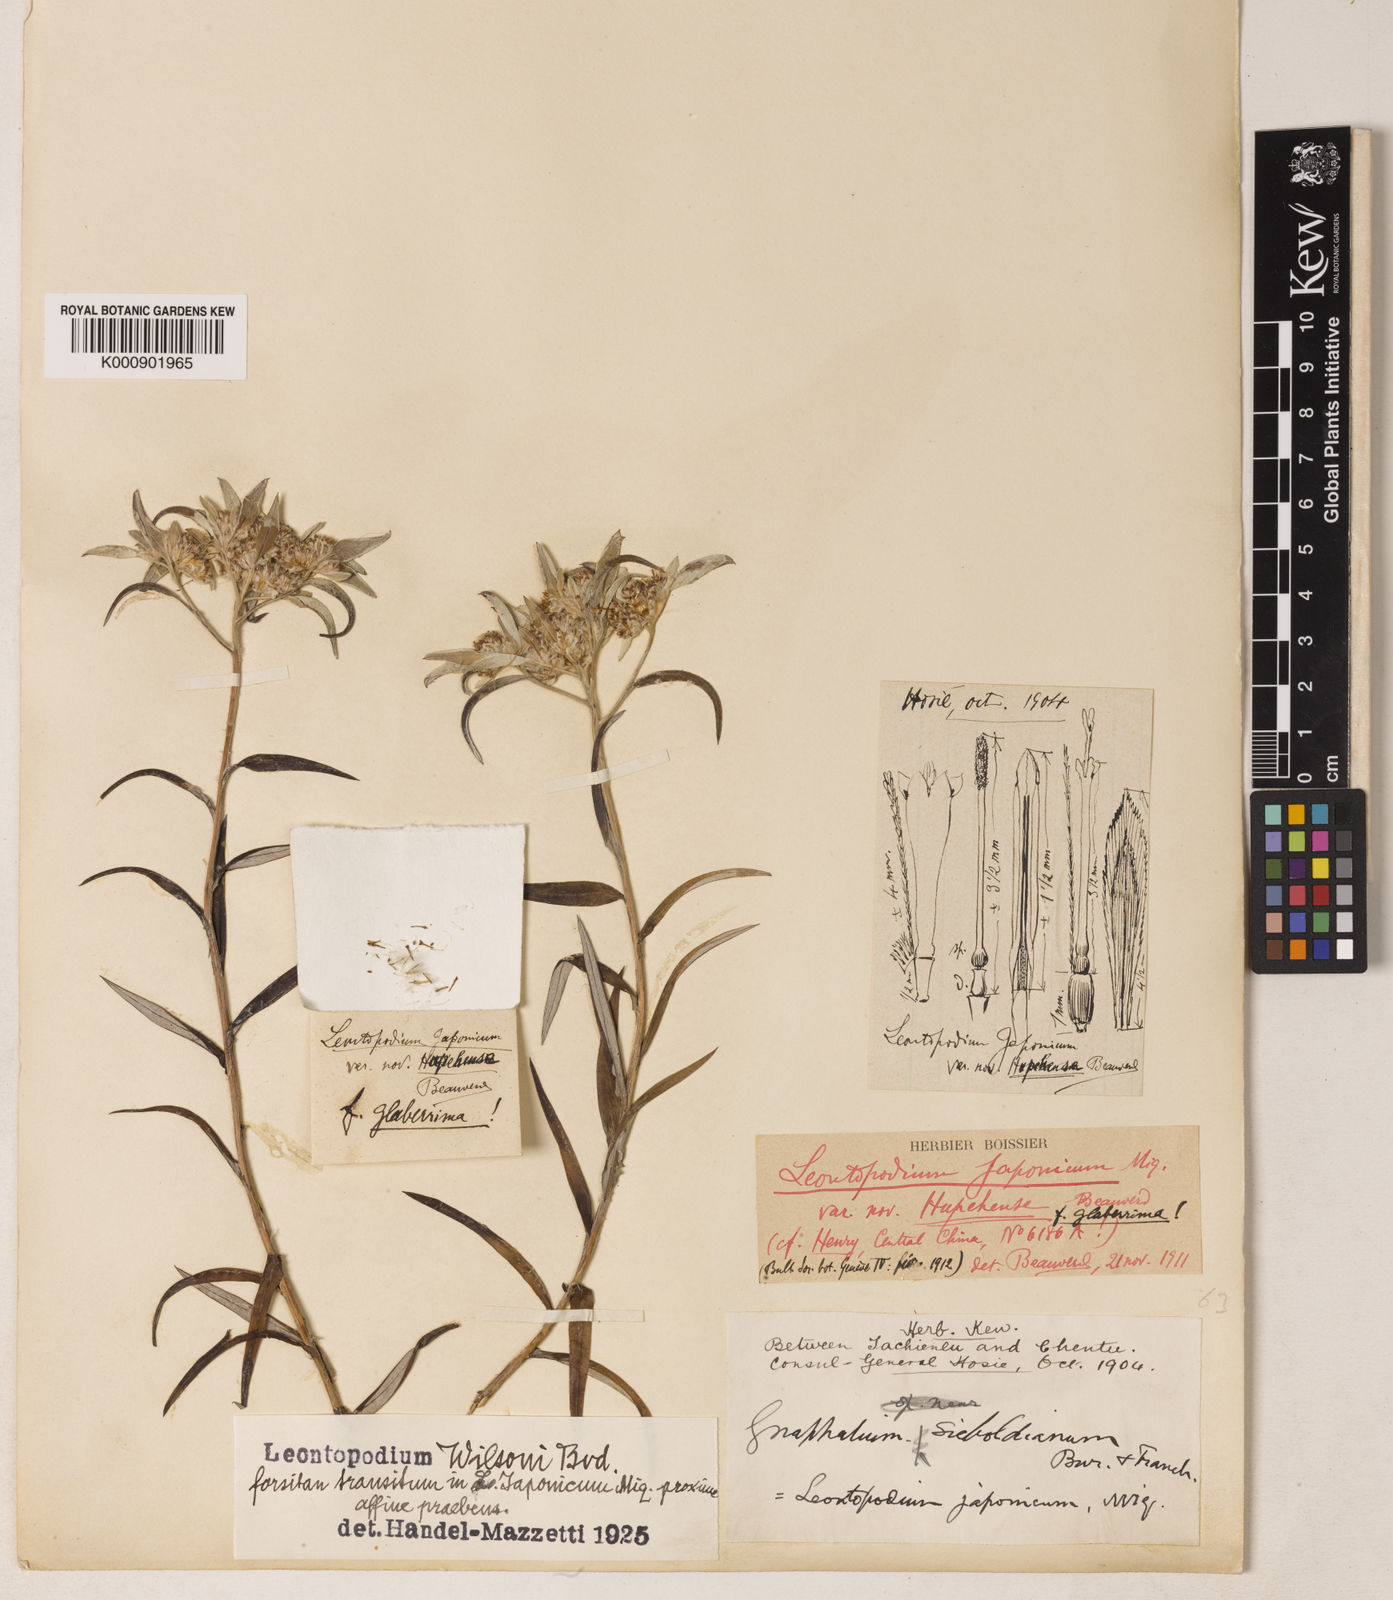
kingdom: Plantae
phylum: Tracheophyta
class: Magnoliopsida
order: Asterales
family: Asteraceae
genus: Leontopodium
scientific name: Leontopodium wilsonii
